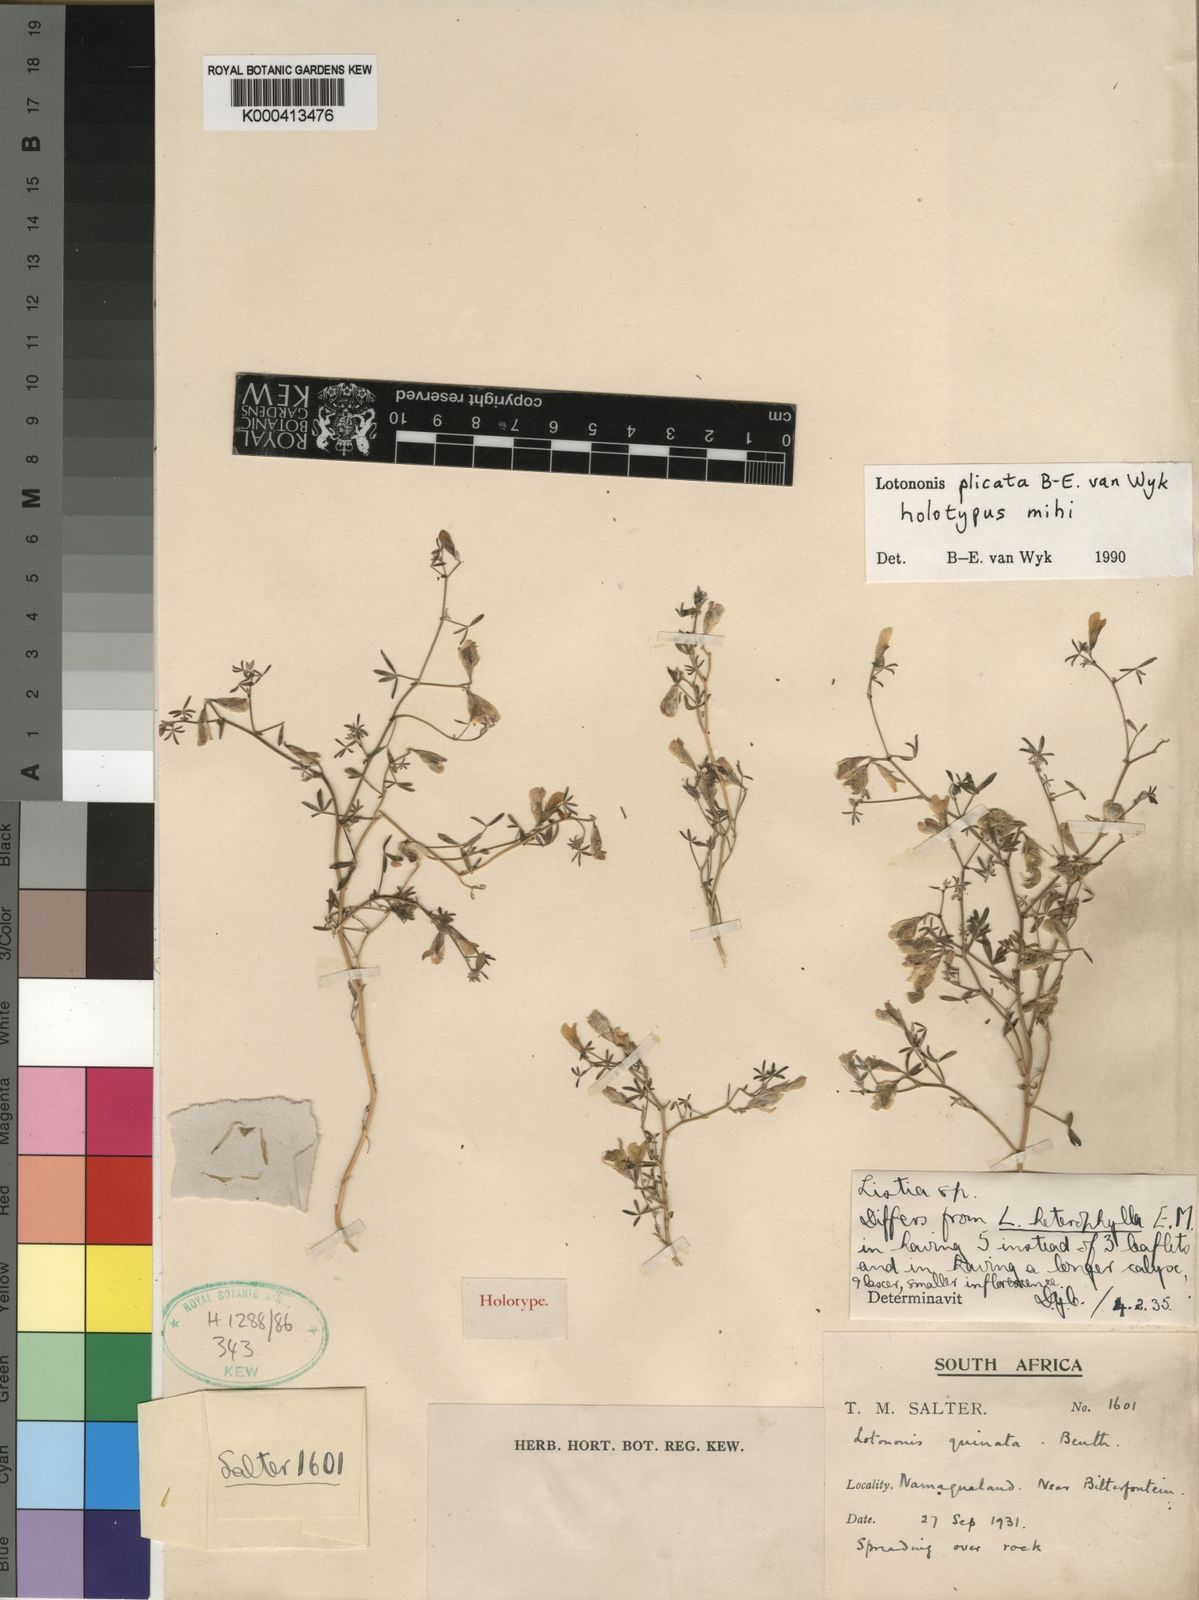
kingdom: Plantae
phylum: Tracheophyta
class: Magnoliopsida
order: Fabales
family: Fabaceae
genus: Leobordea
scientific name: Leobordea plicata
